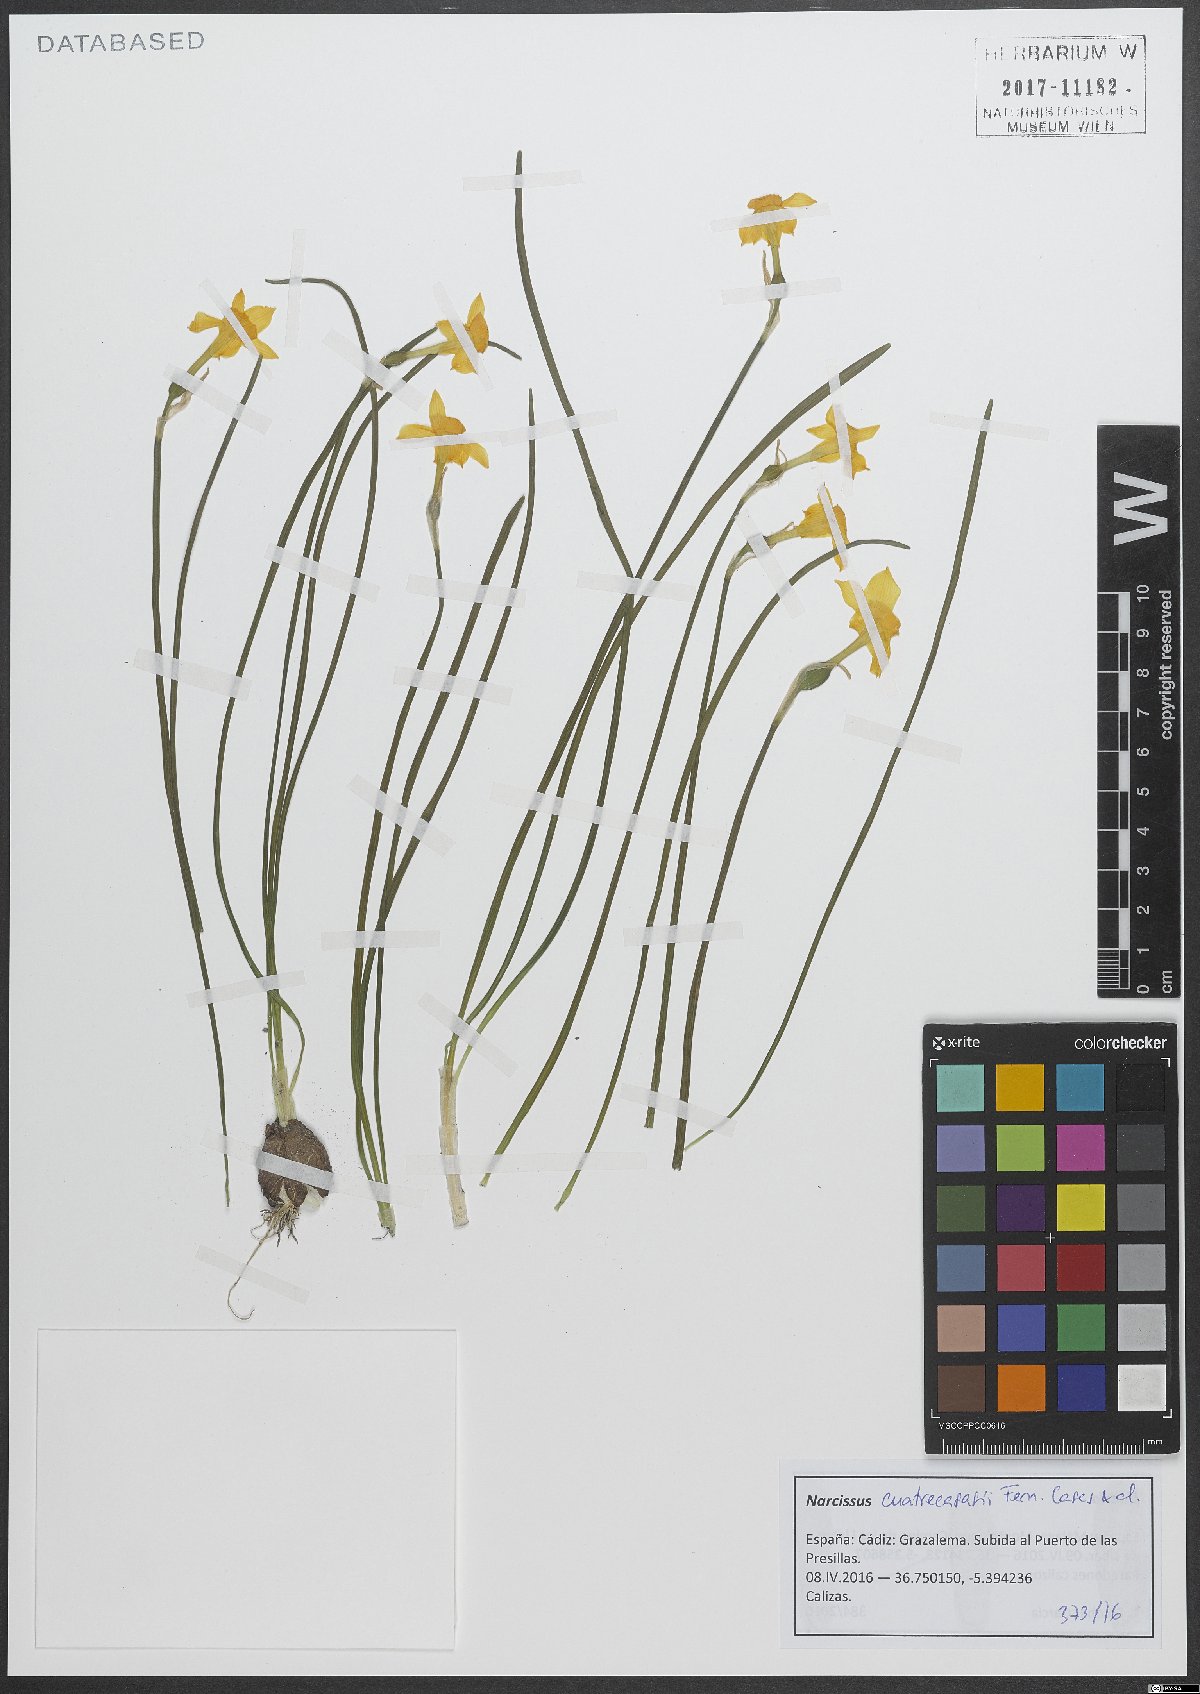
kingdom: Plantae
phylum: Tracheophyta
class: Liliopsida
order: Asparagales
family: Amaryllidaceae
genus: Narcissus
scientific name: Narcissus cuatrecasasii
